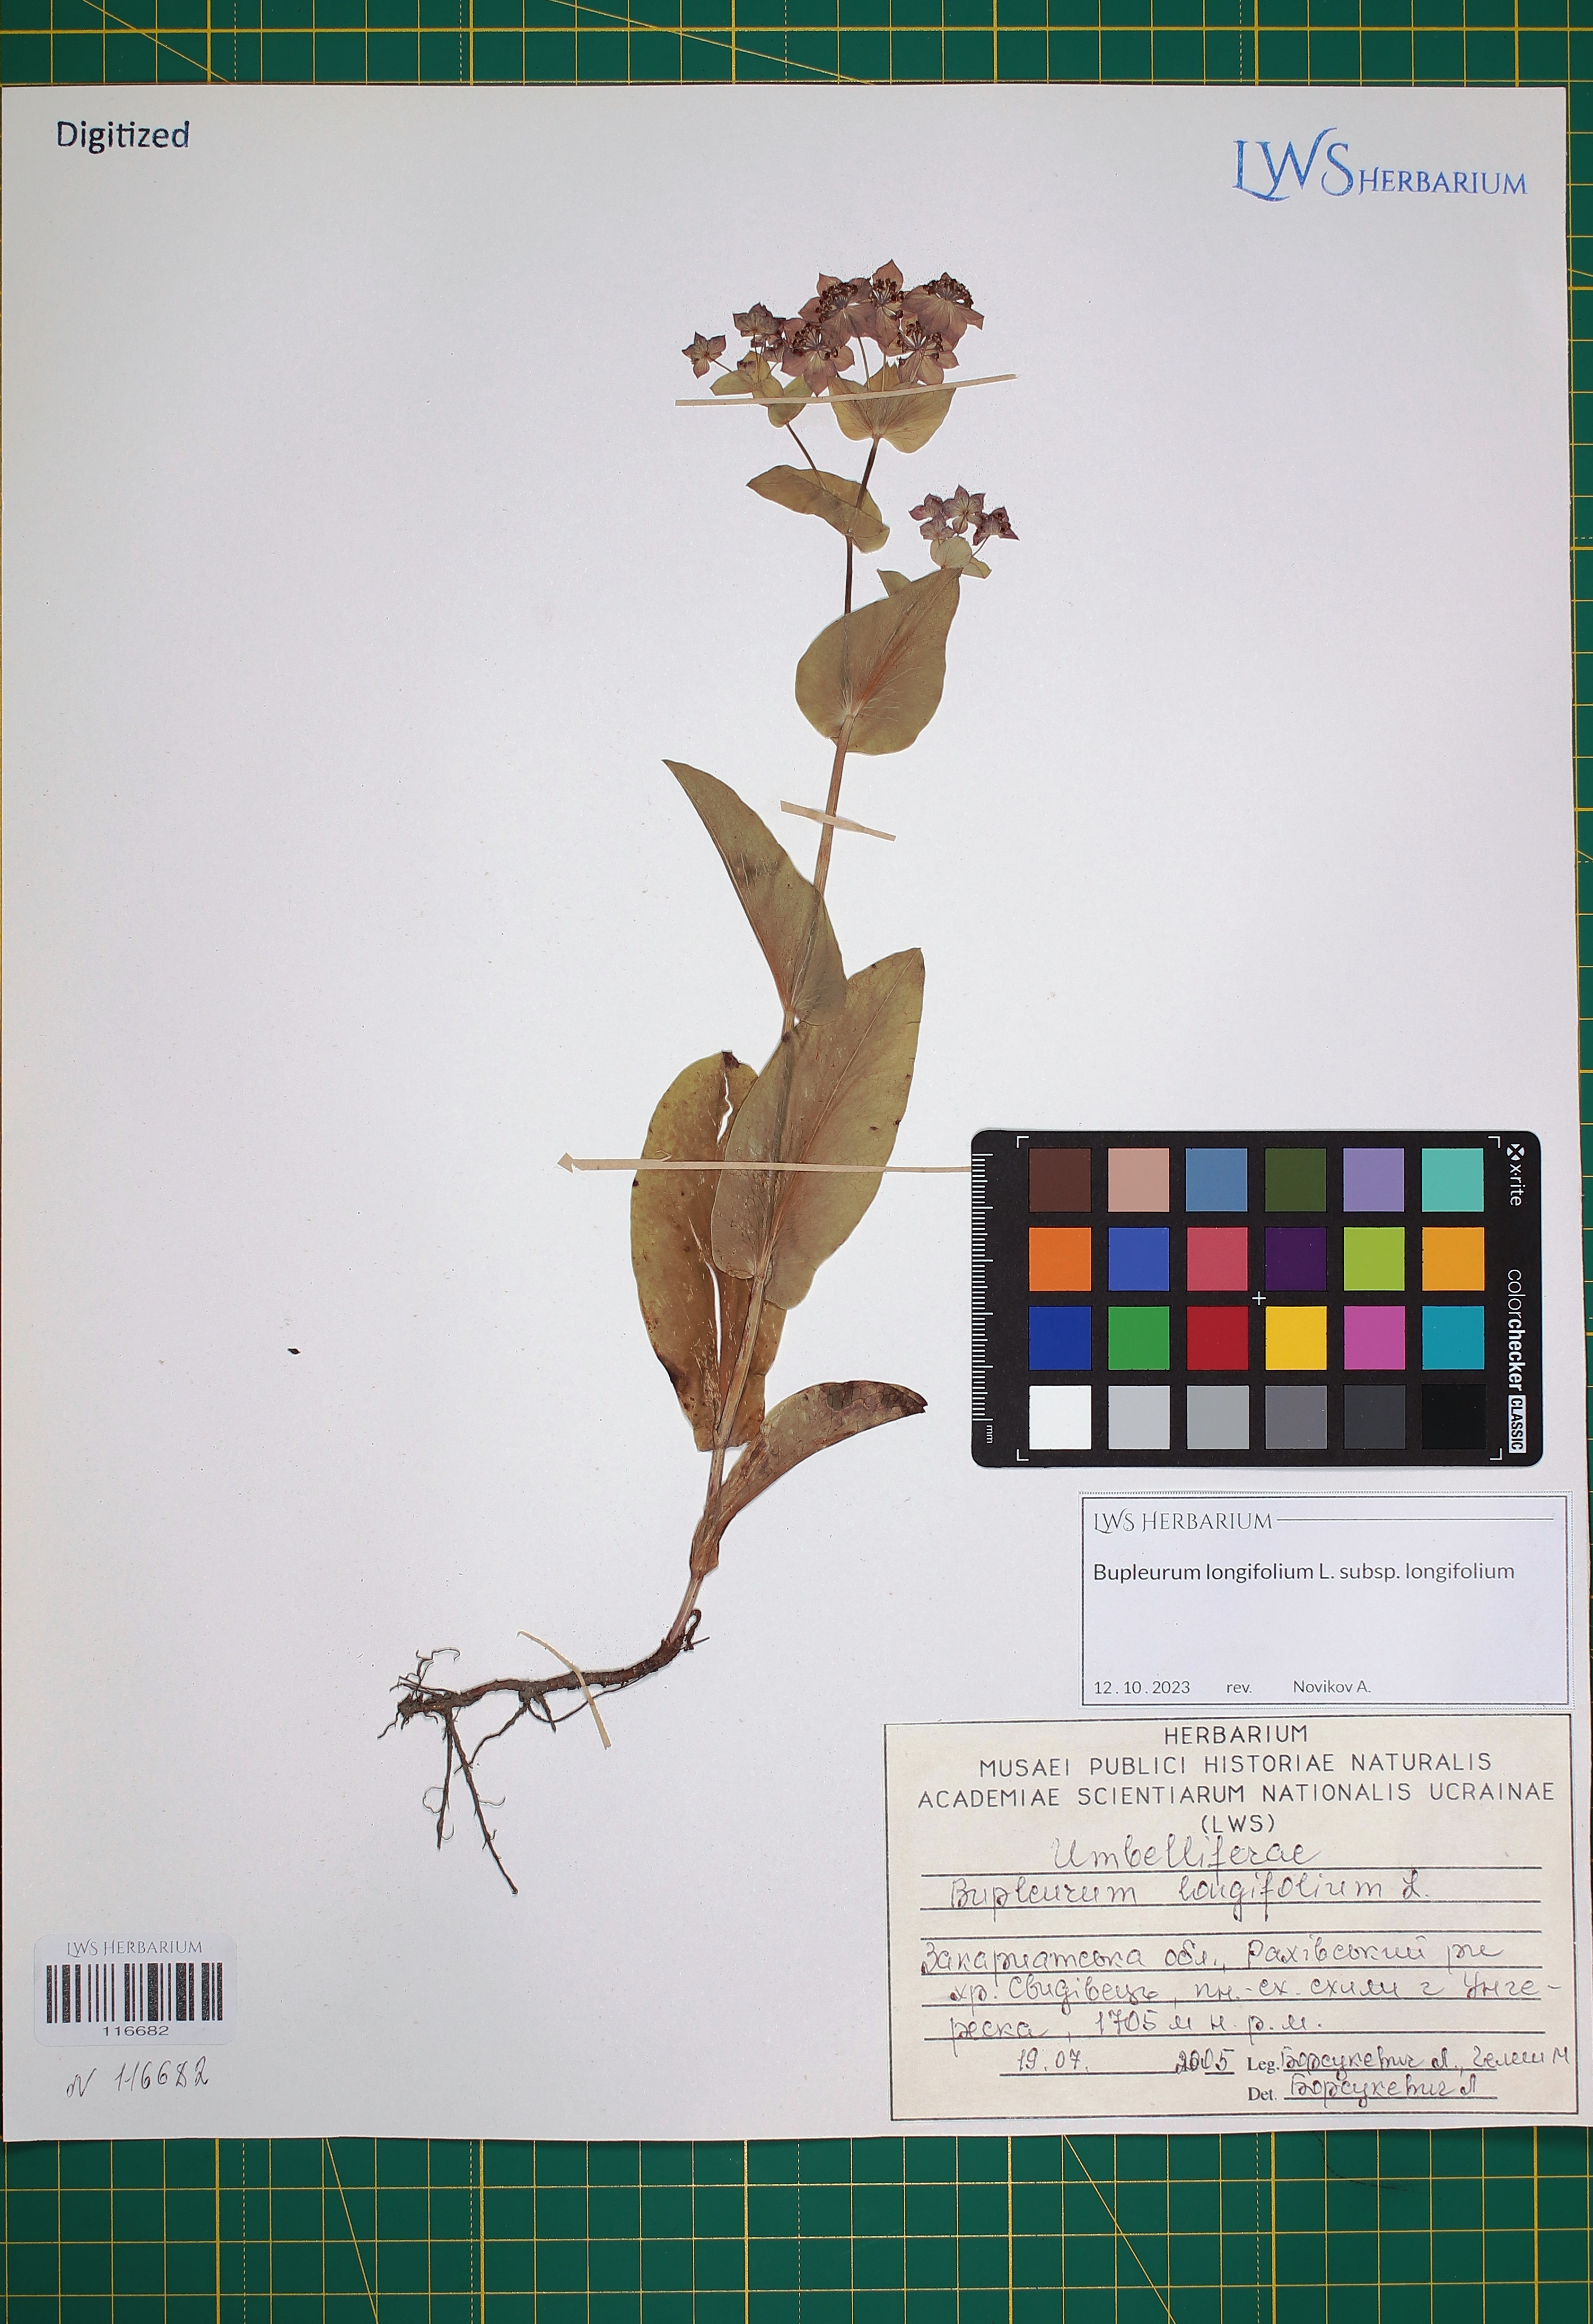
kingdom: Plantae
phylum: Tracheophyta
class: Magnoliopsida
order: Apiales
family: Apiaceae
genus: Bupleurum
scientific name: Bupleurum longifolium
